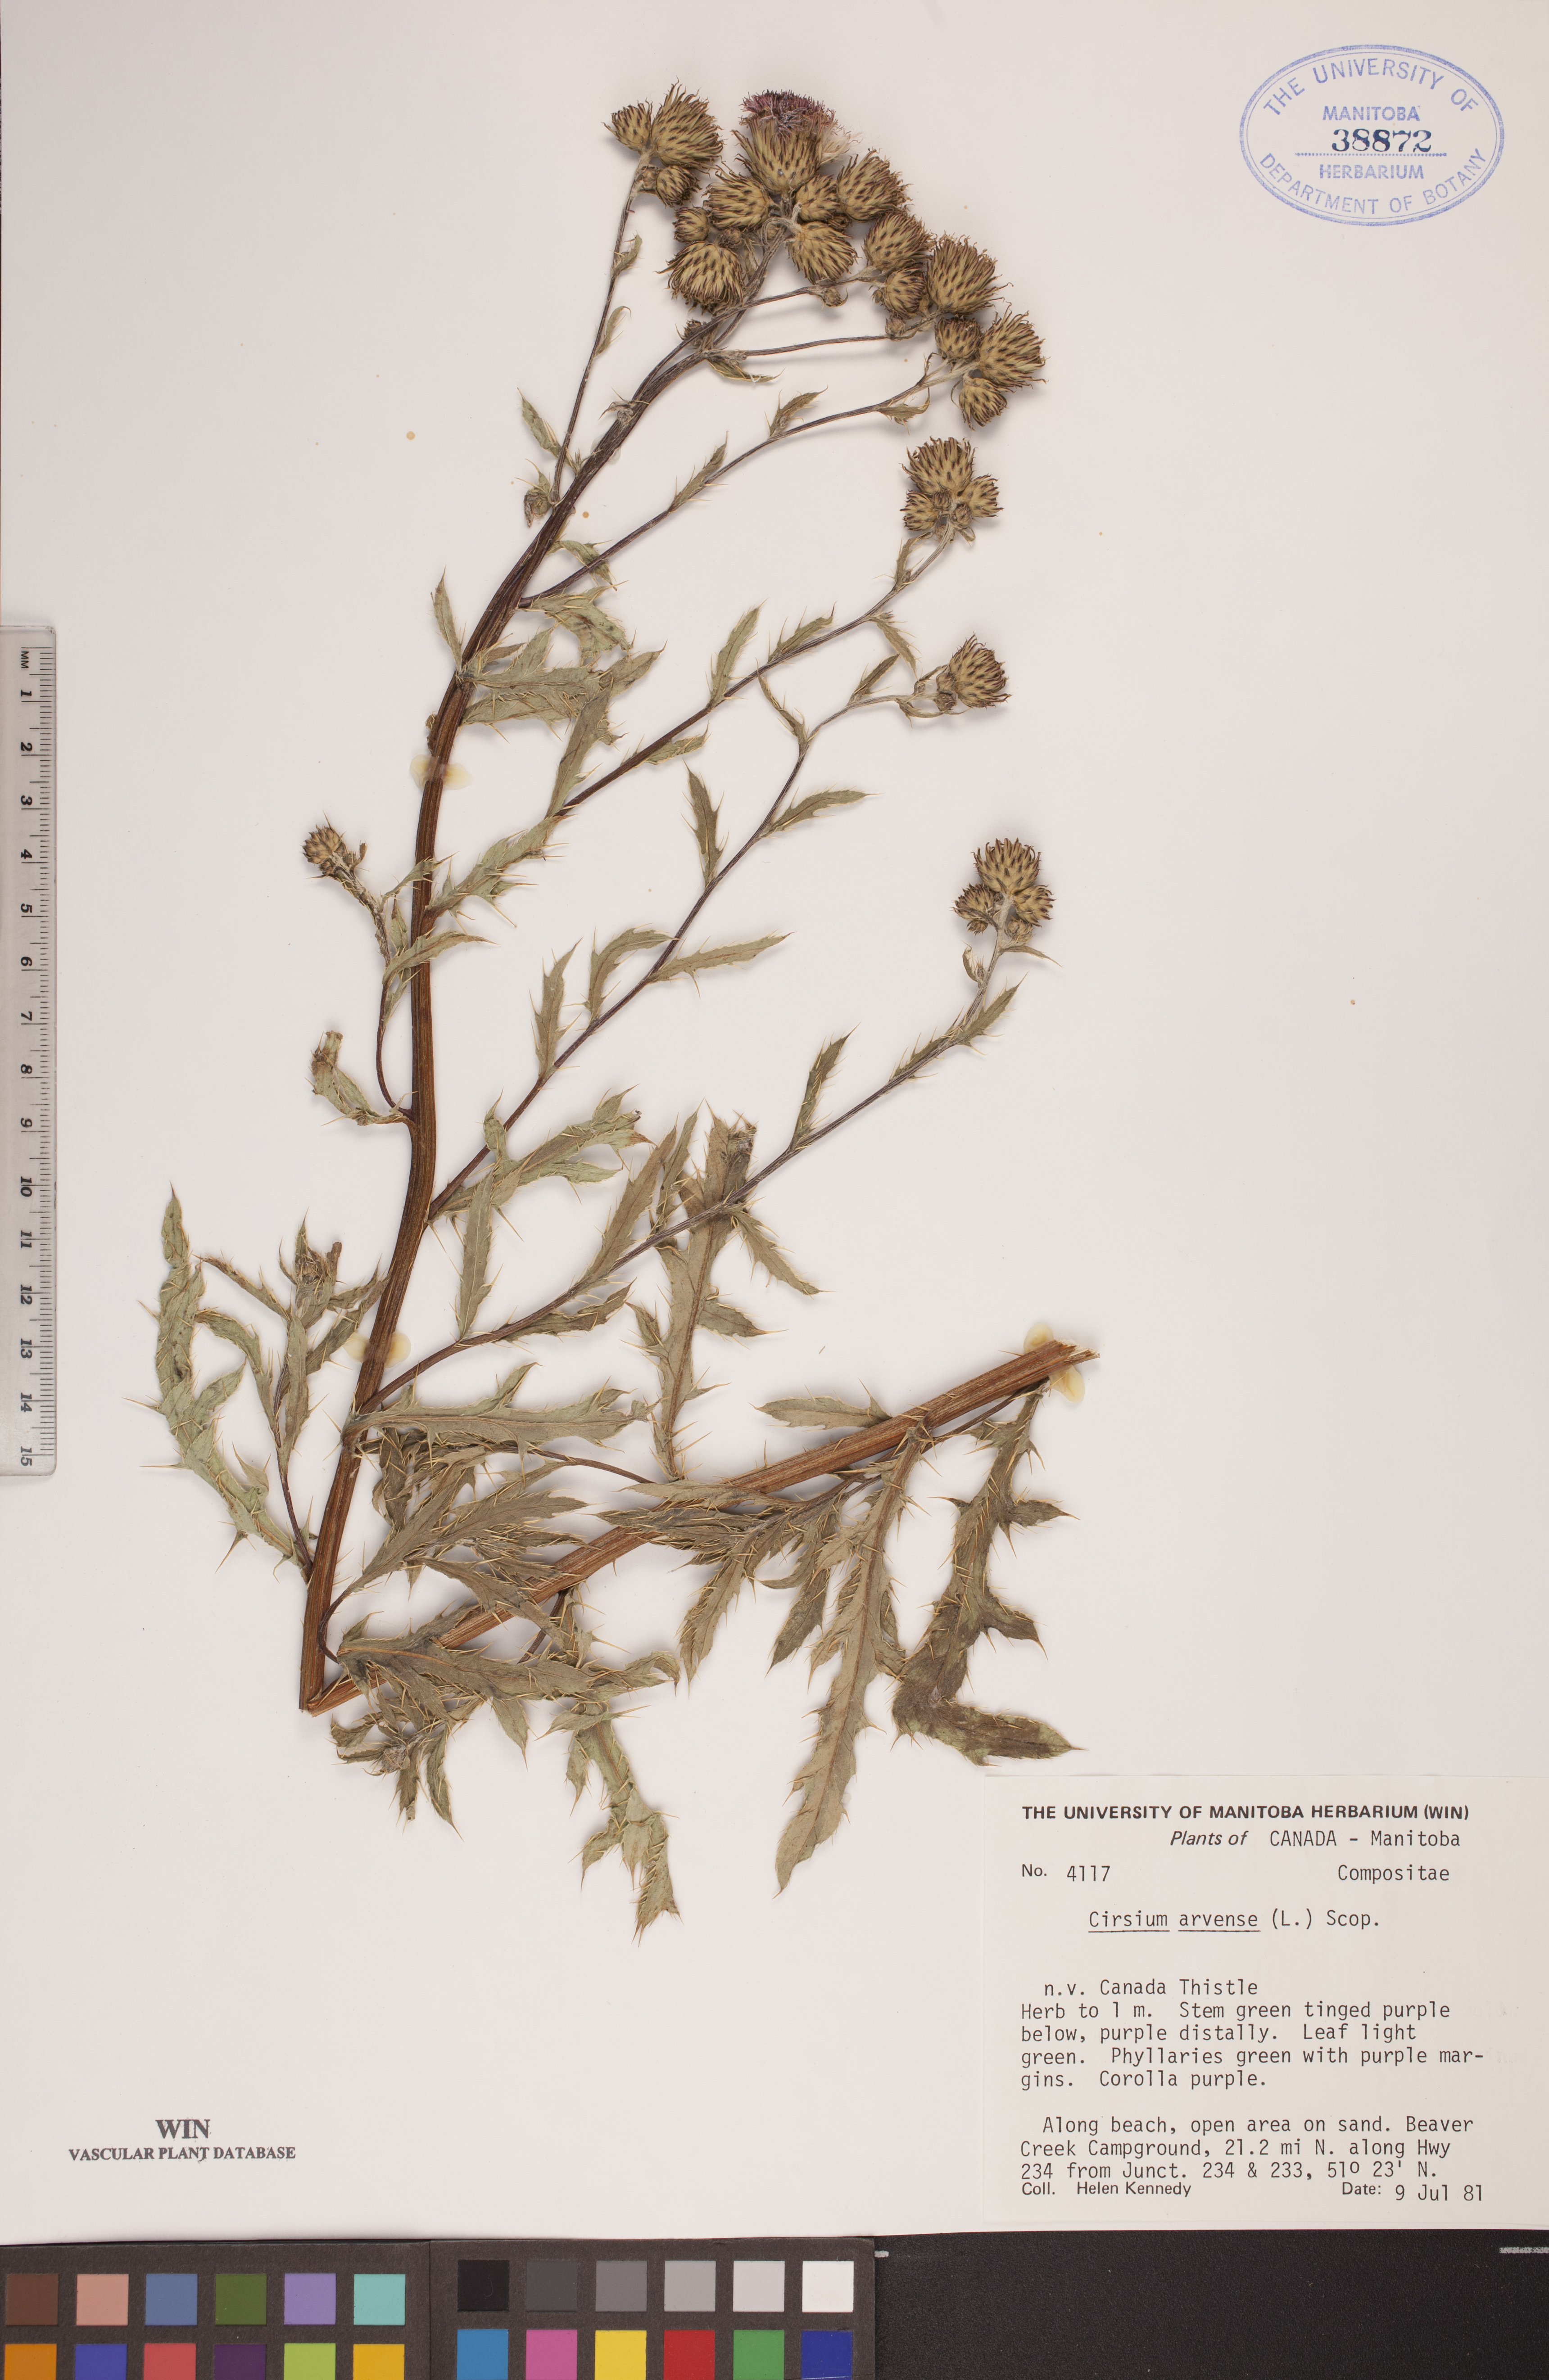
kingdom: Plantae
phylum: Tracheophyta
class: Magnoliopsida
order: Asterales
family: Asteraceae
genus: Cirsium
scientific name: Cirsium arvense
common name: Creeping thistle
